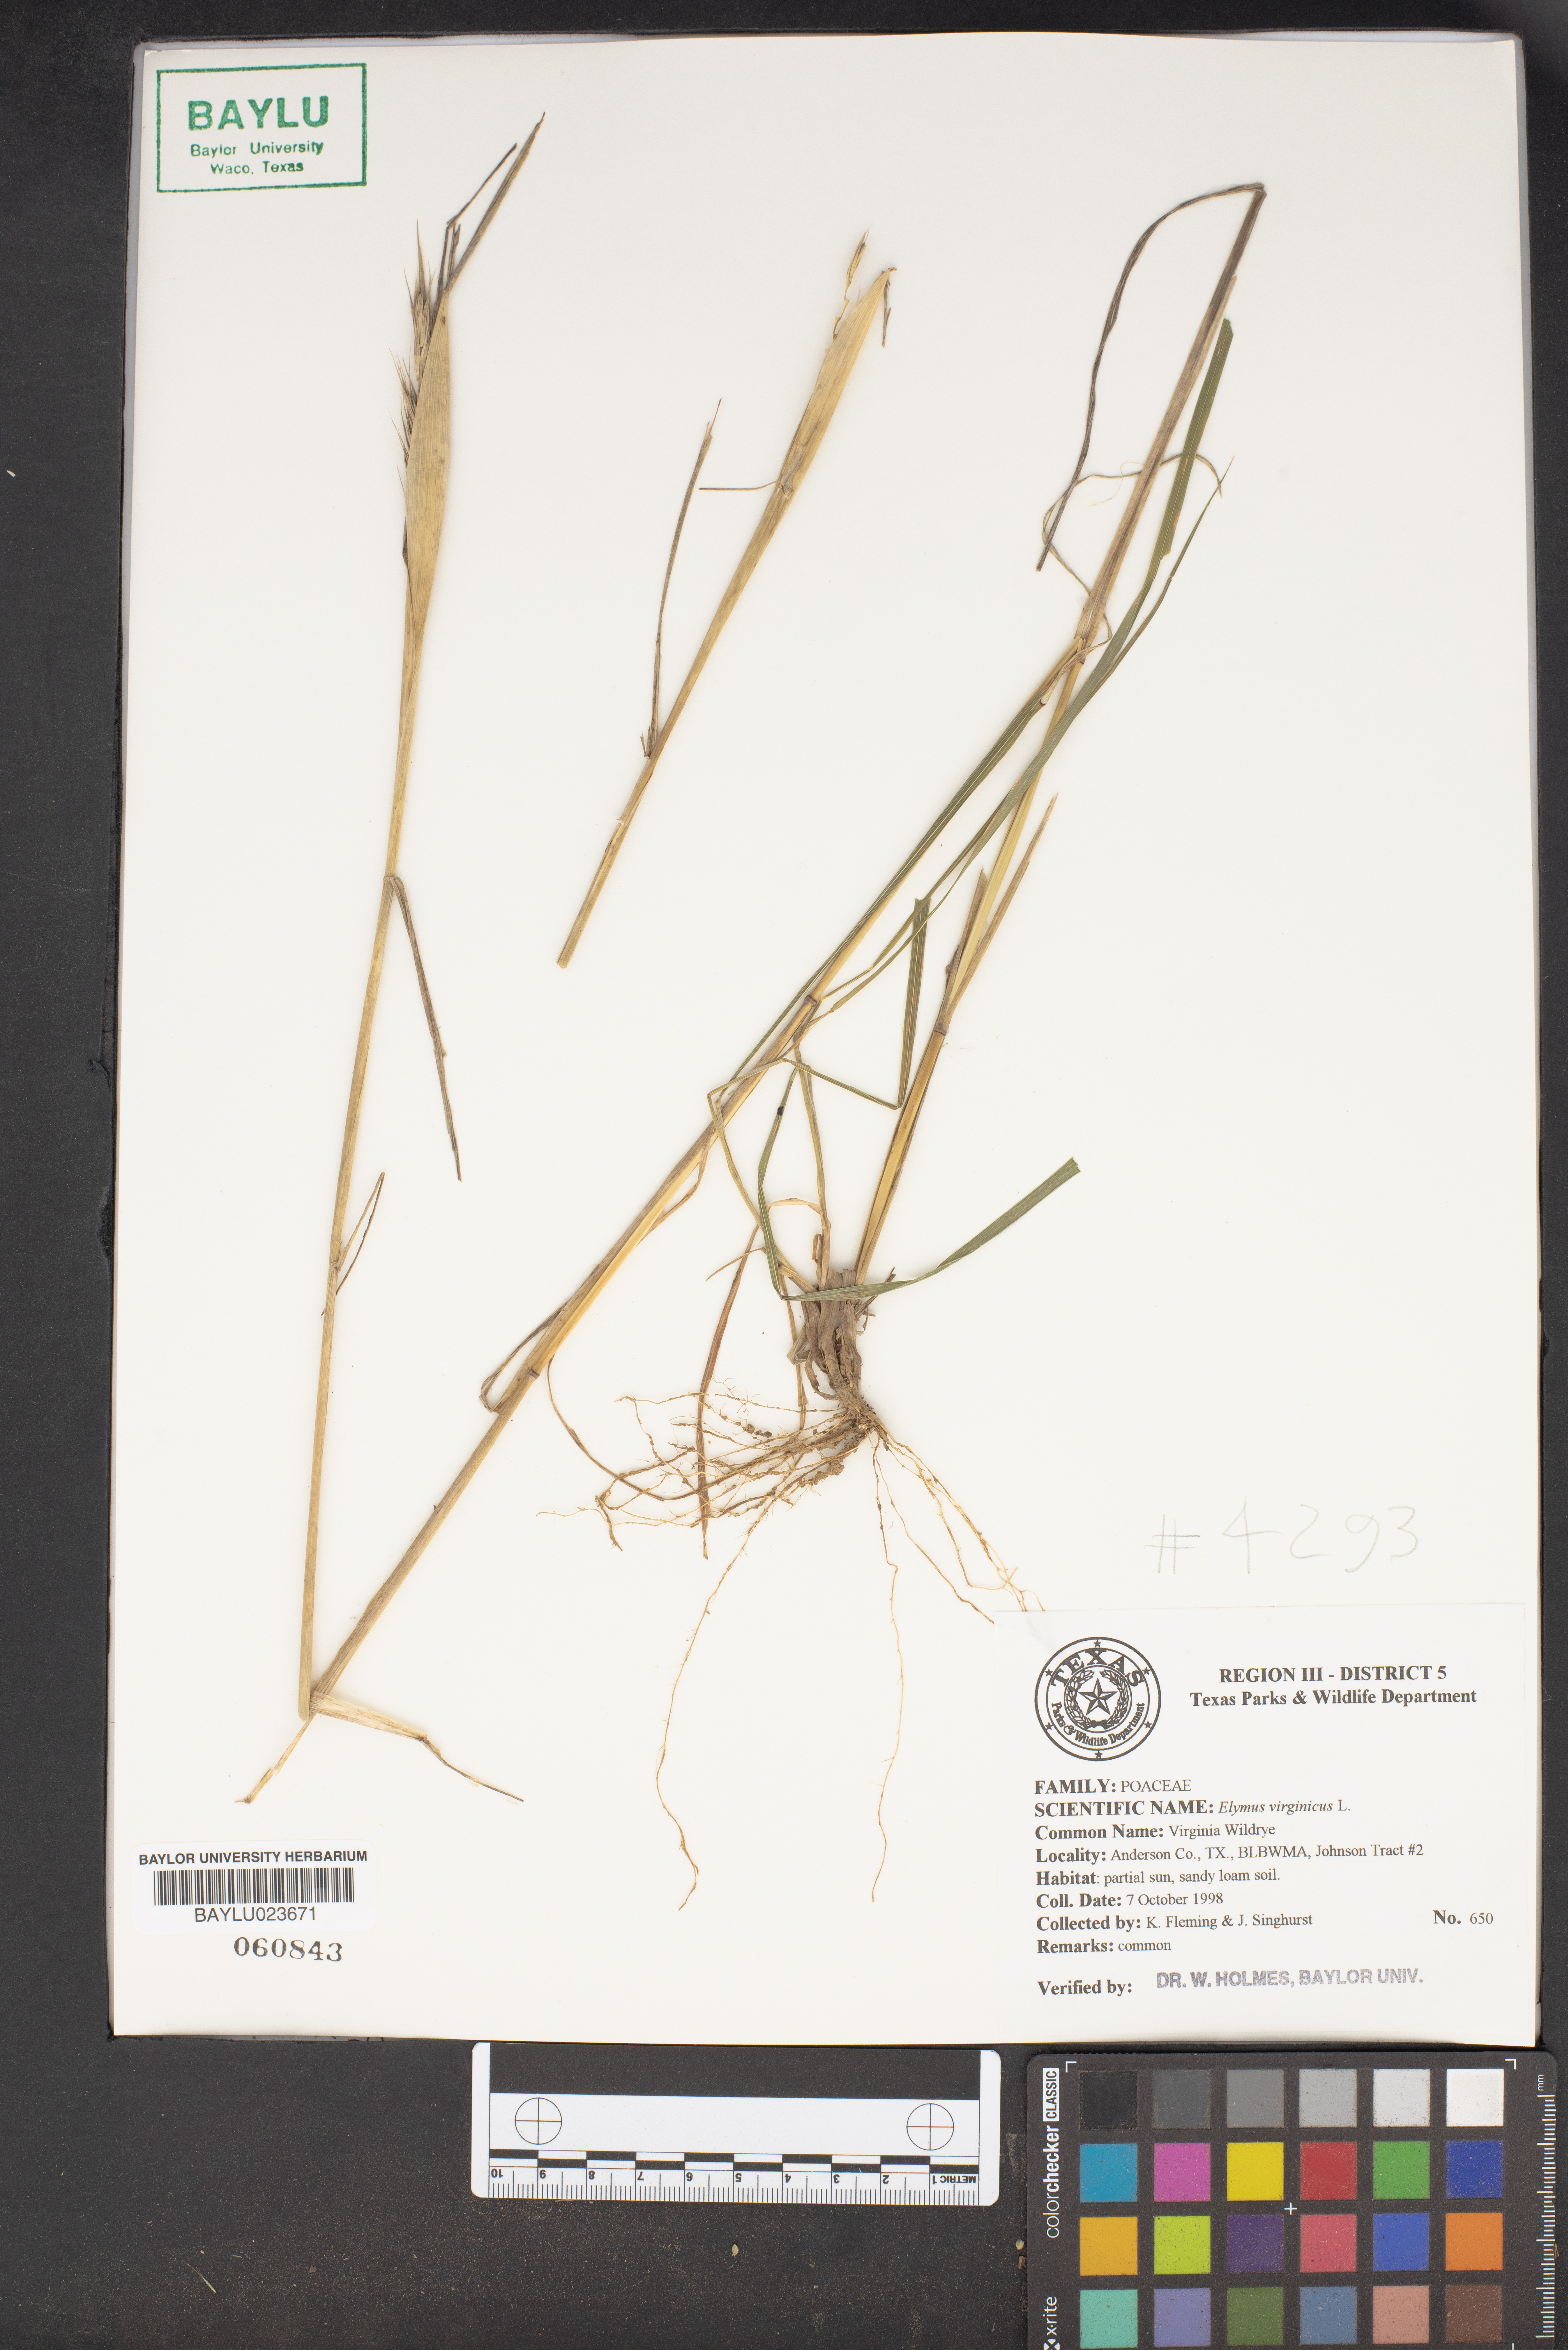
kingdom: Plantae
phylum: Tracheophyta
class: Liliopsida
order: Poales
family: Poaceae
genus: Elymus
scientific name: Elymus virginicus
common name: Common eastern wildrye
